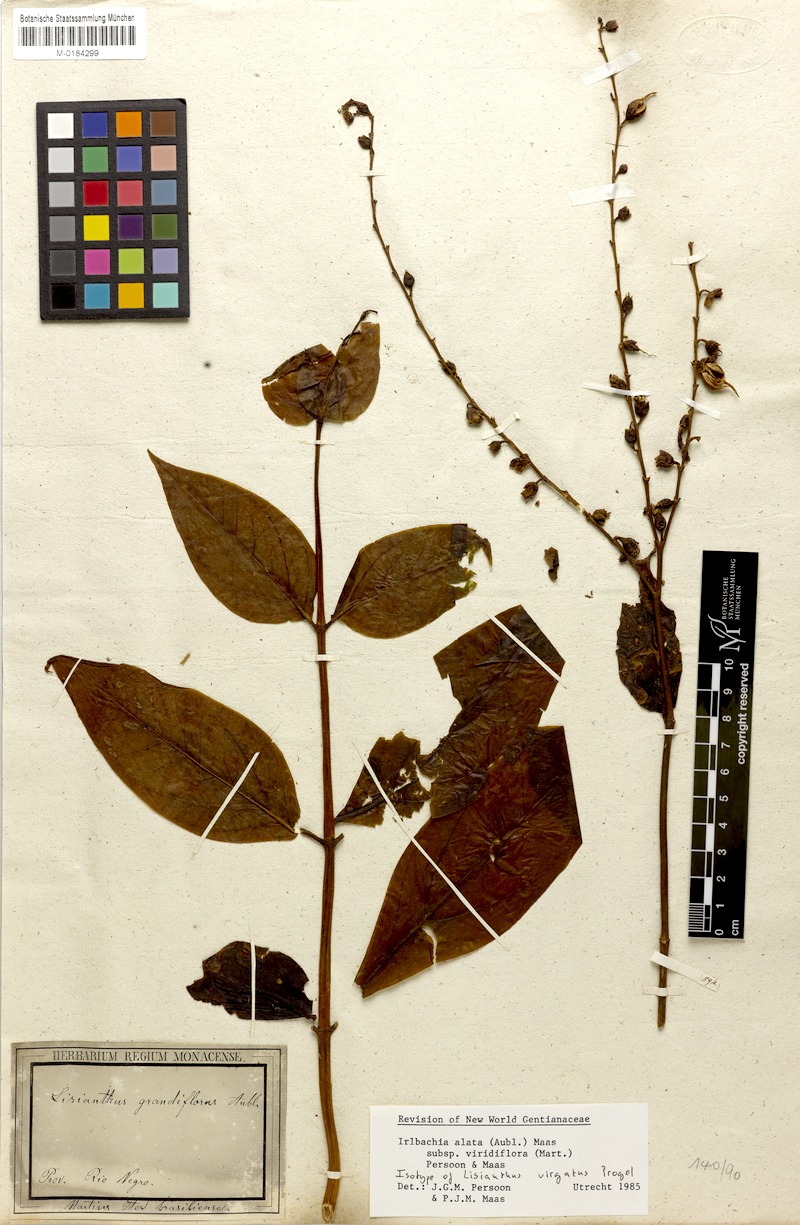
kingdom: Plantae
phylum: Tracheophyta
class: Magnoliopsida
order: Gentianales
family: Gentianaceae
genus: Adenolisianthus
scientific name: Adenolisianthus arboreus
